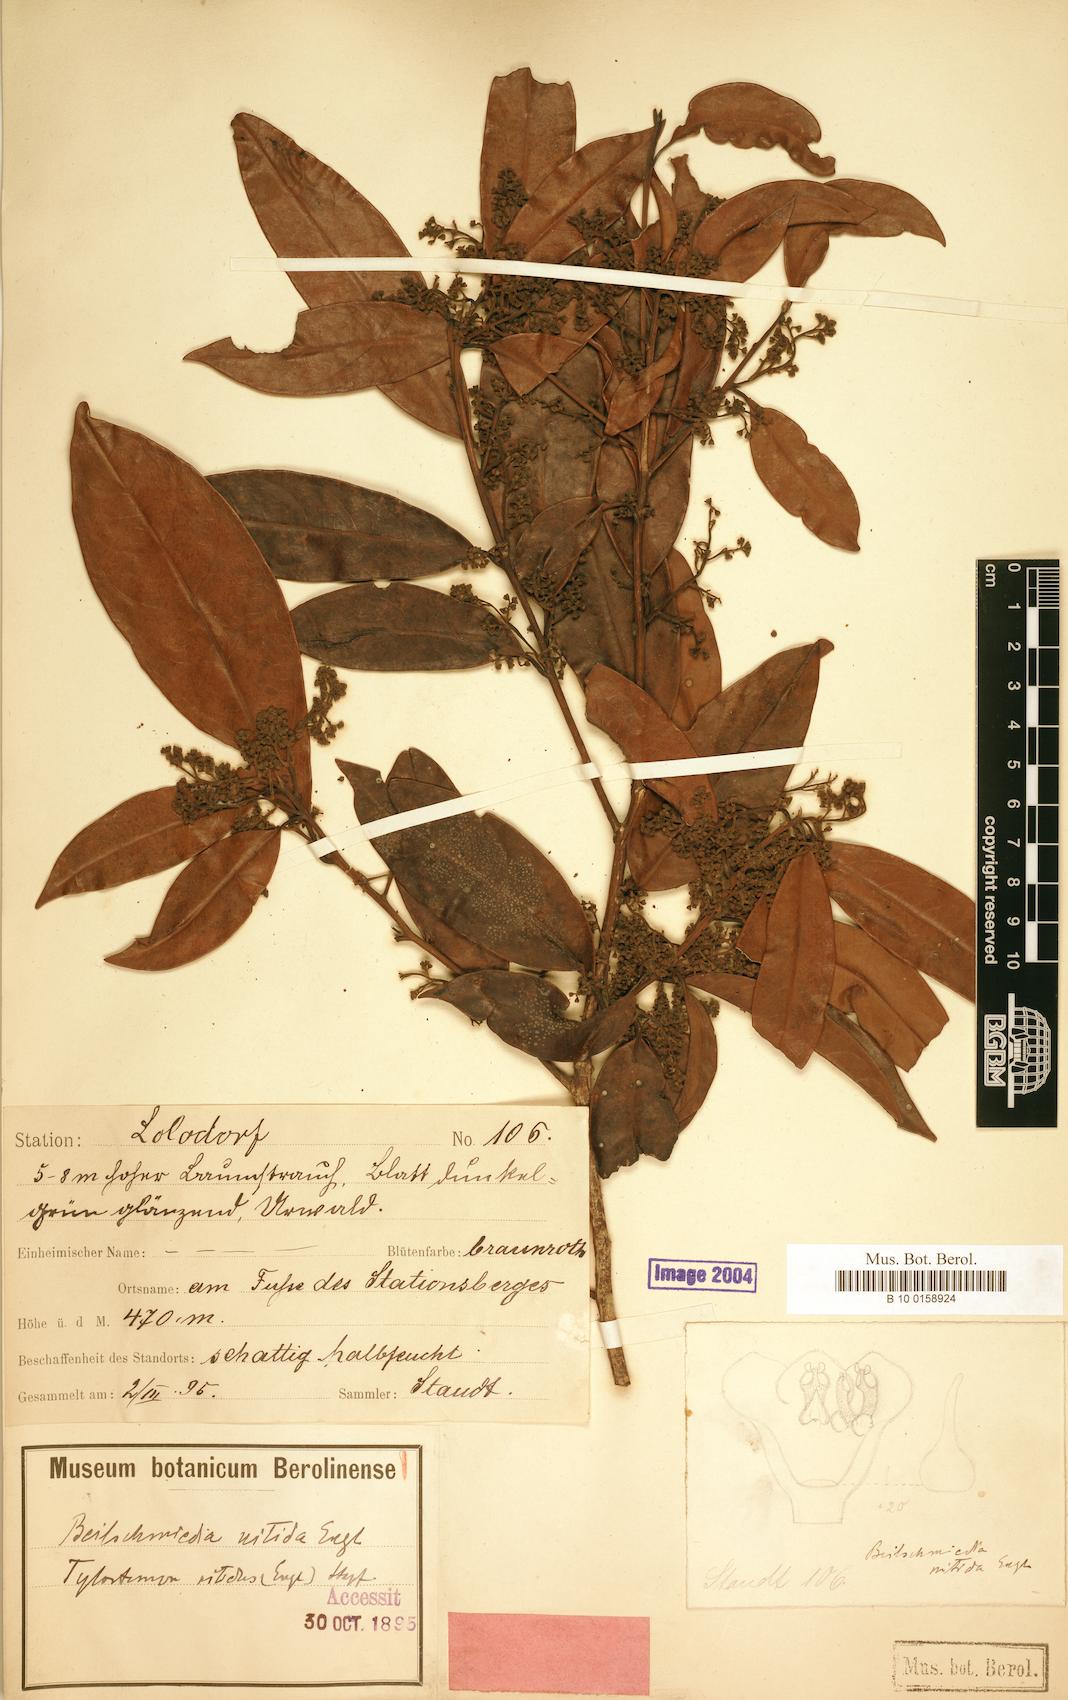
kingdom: Plantae
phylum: Tracheophyta
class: Magnoliopsida
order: Laurales
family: Lauraceae
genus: Beilschmiedia
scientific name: Beilschmiedia nitida
